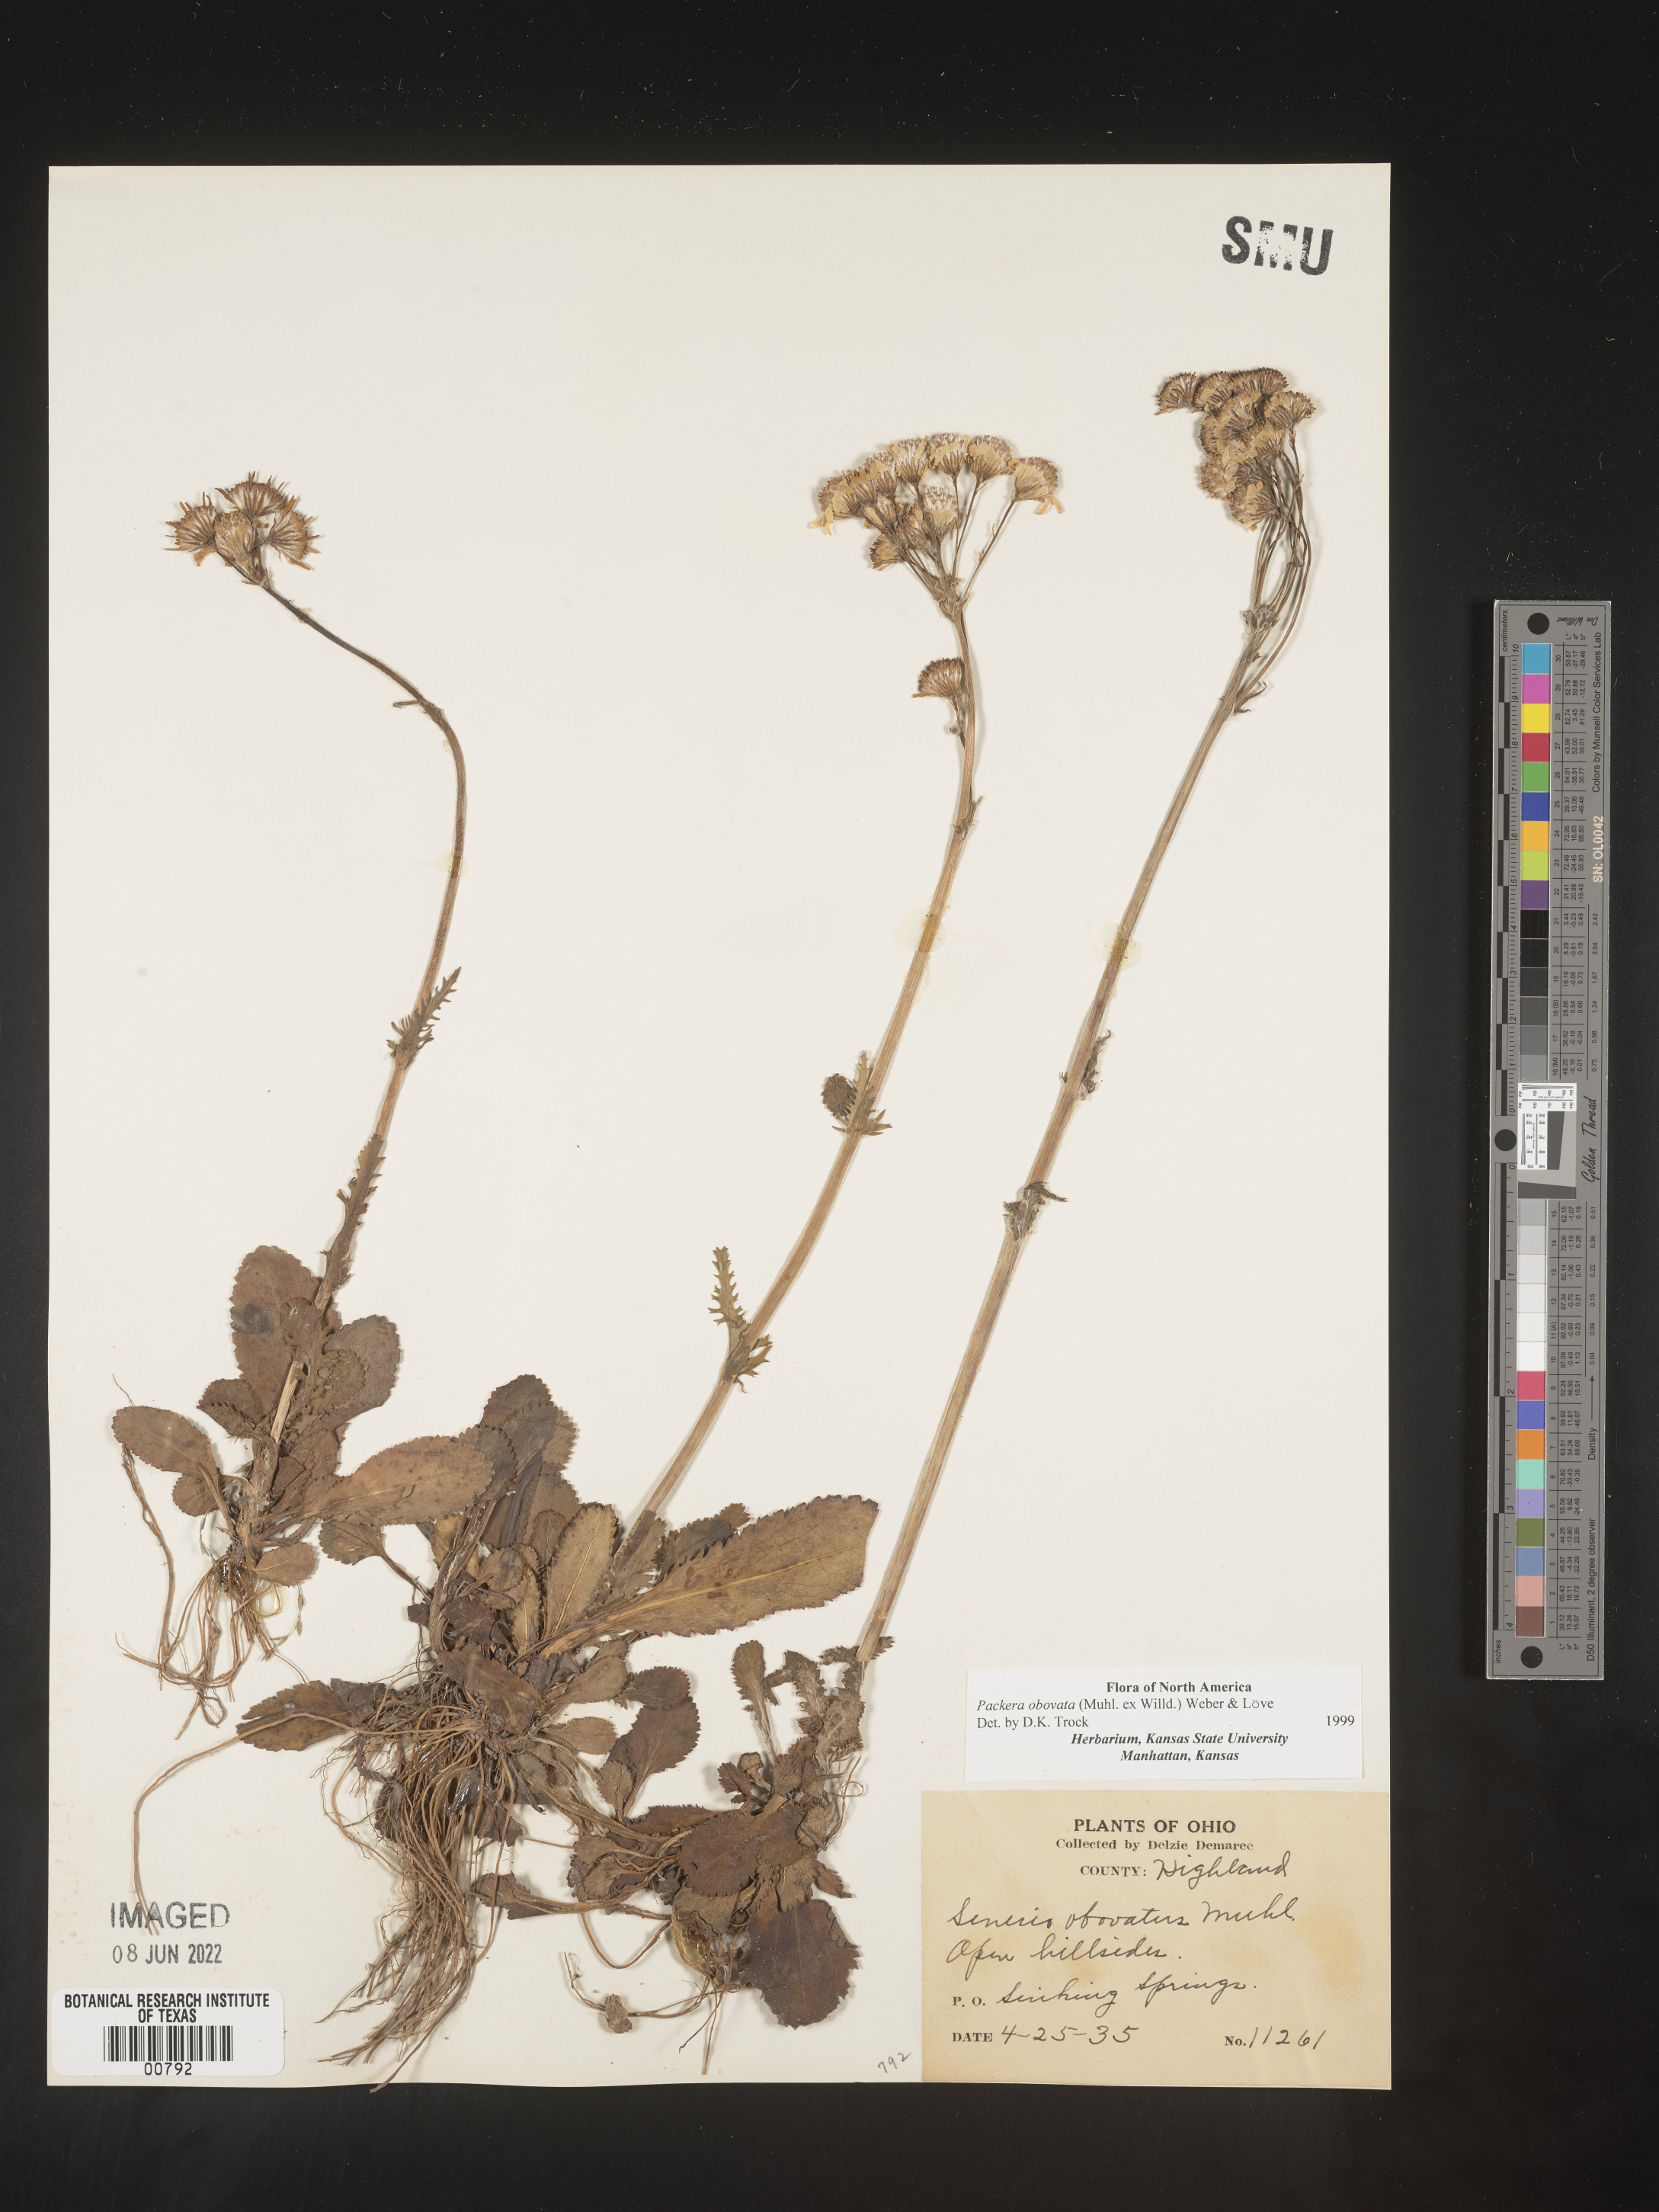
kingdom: Plantae
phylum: Tracheophyta
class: Magnoliopsida
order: Asterales
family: Asteraceae
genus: Packera
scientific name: Packera obovata
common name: Round-leaf ragwort
